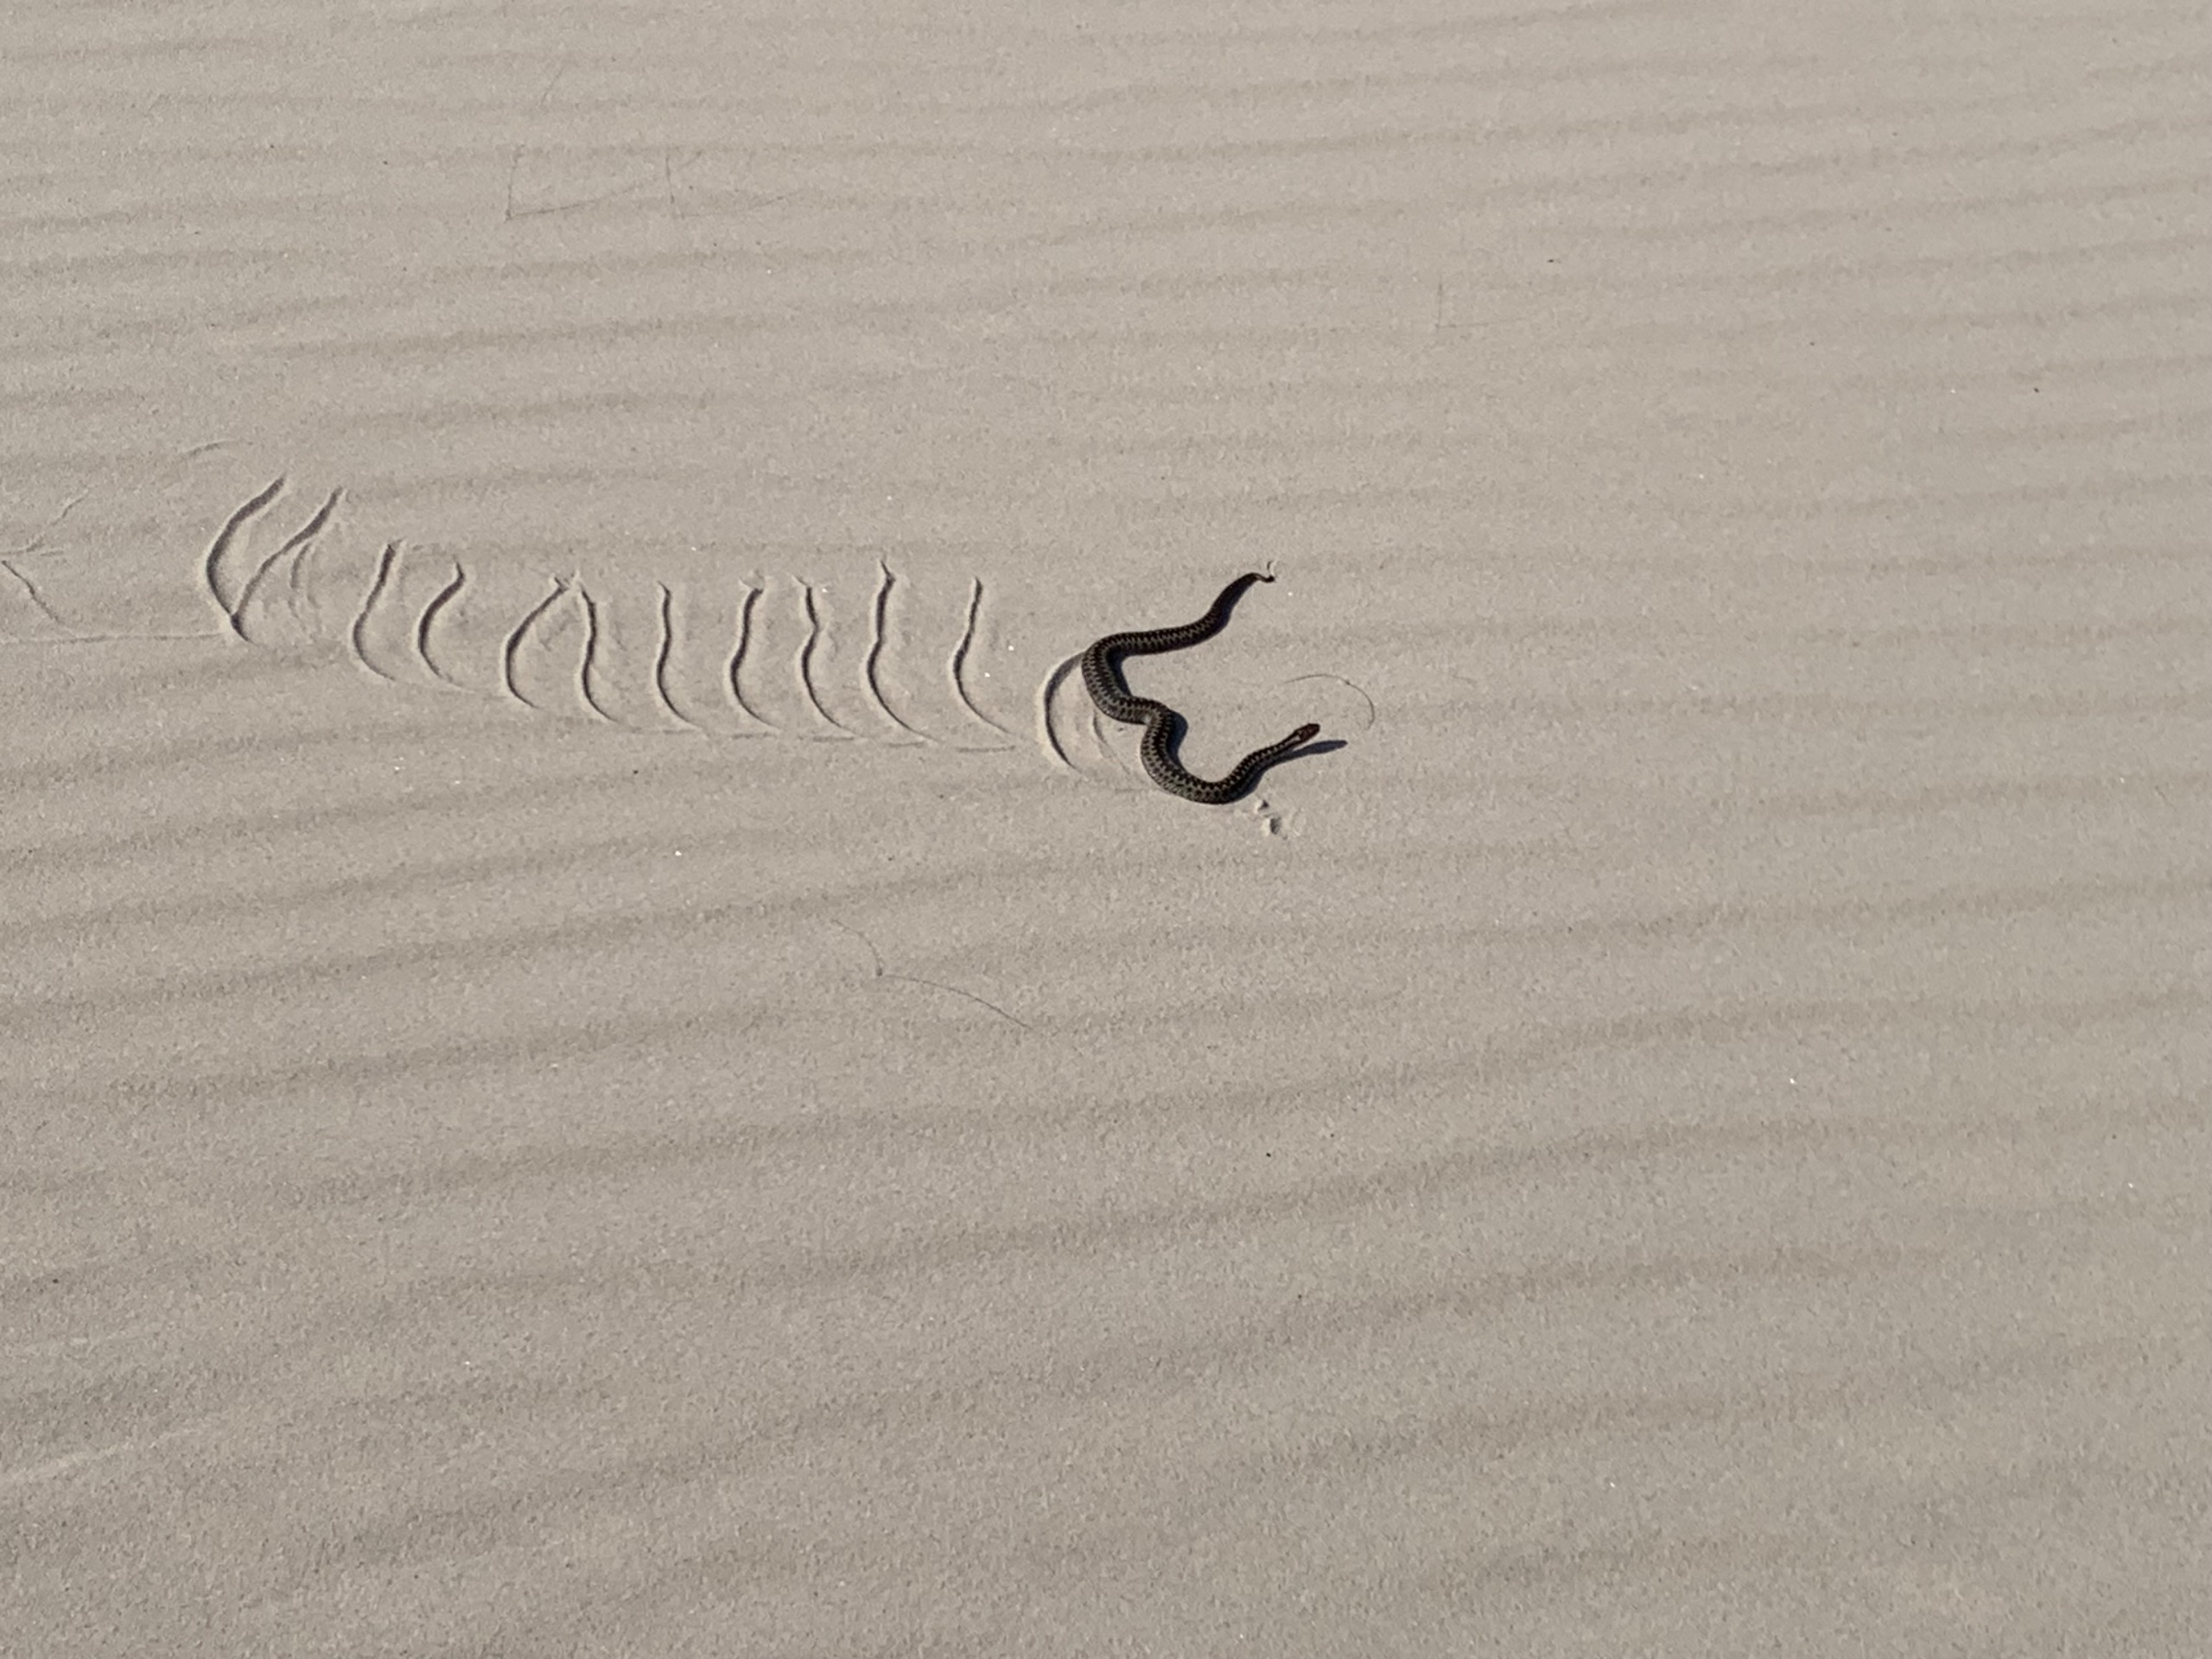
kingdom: Animalia
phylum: Chordata
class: Squamata
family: Viperidae
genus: Vipera
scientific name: Vipera berus
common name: Hugorm
